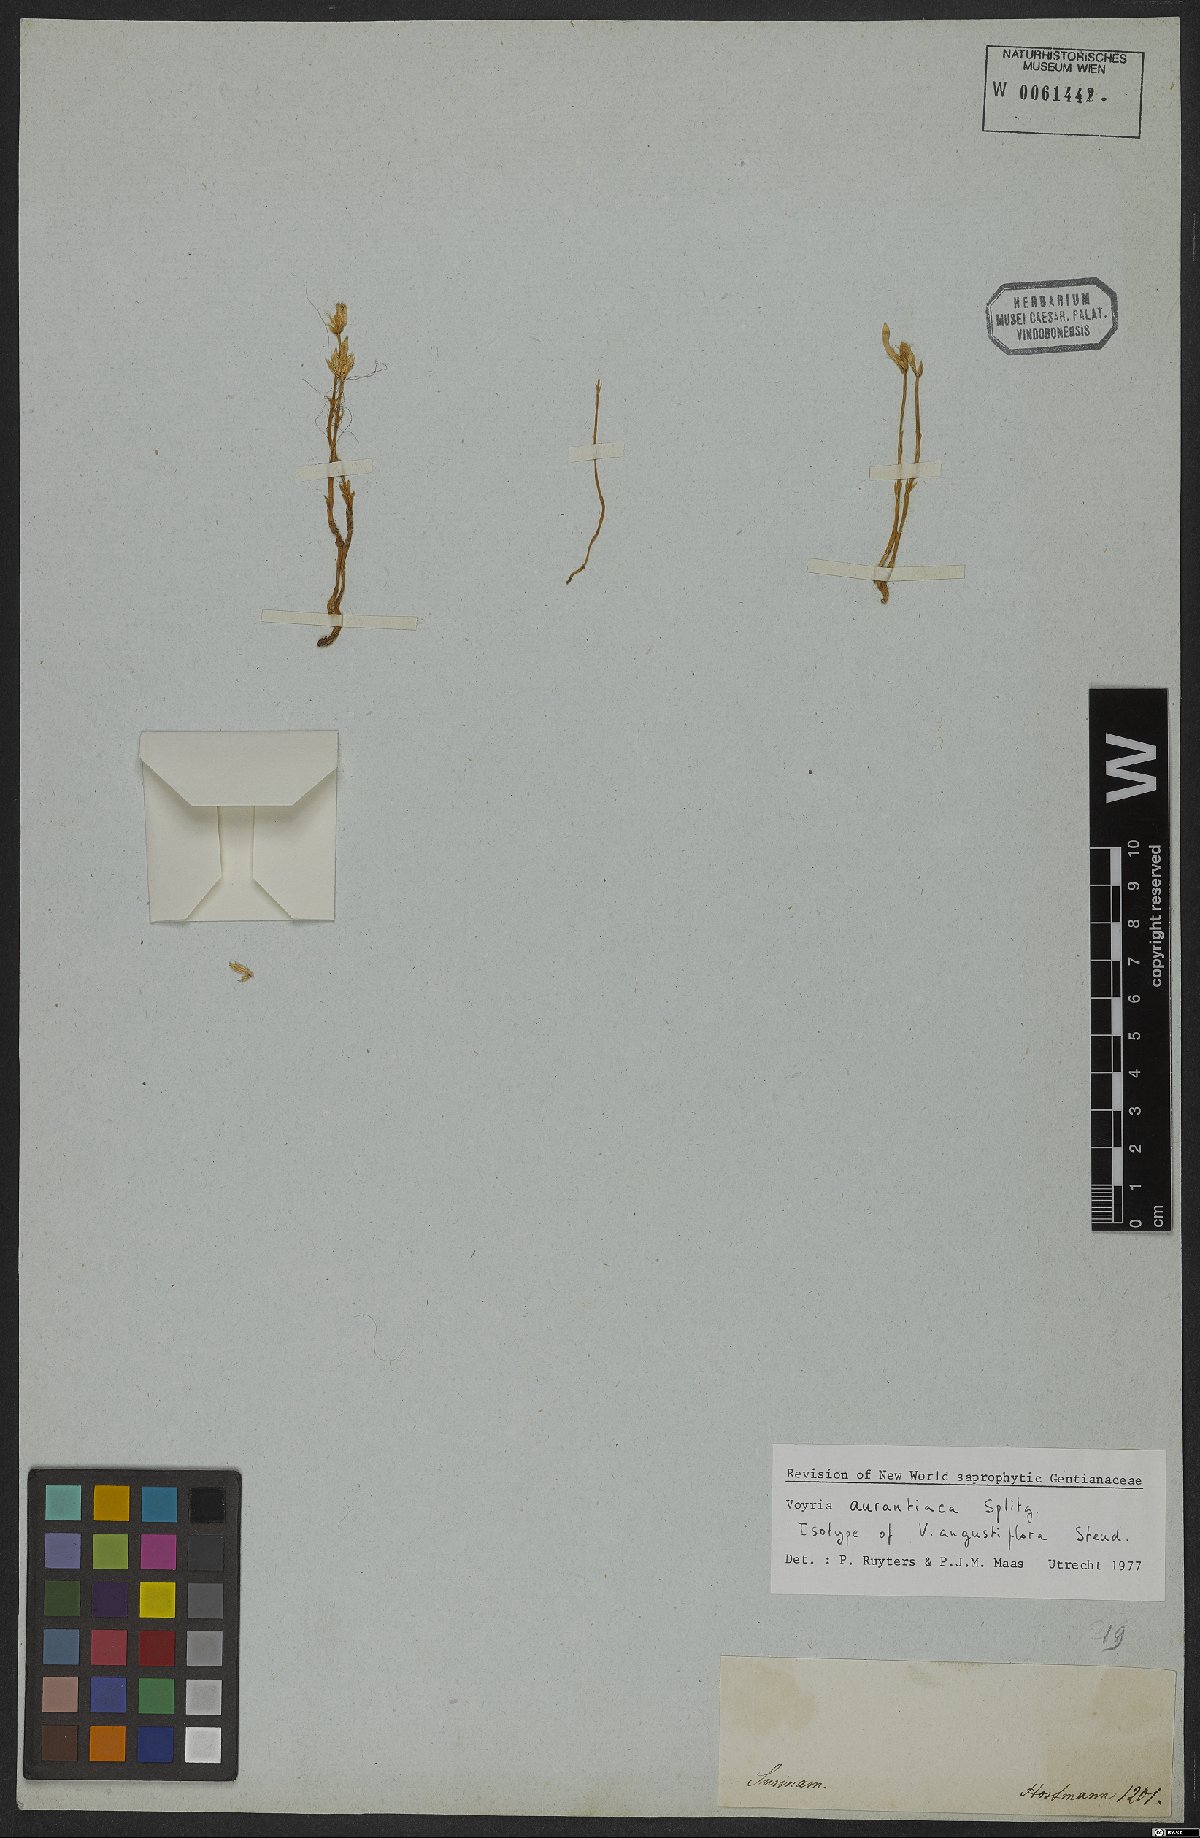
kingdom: Plantae
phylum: Tracheophyta
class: Magnoliopsida
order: Gentianales
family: Gentianaceae
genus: Voyria
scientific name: Voyria aurantiaca
